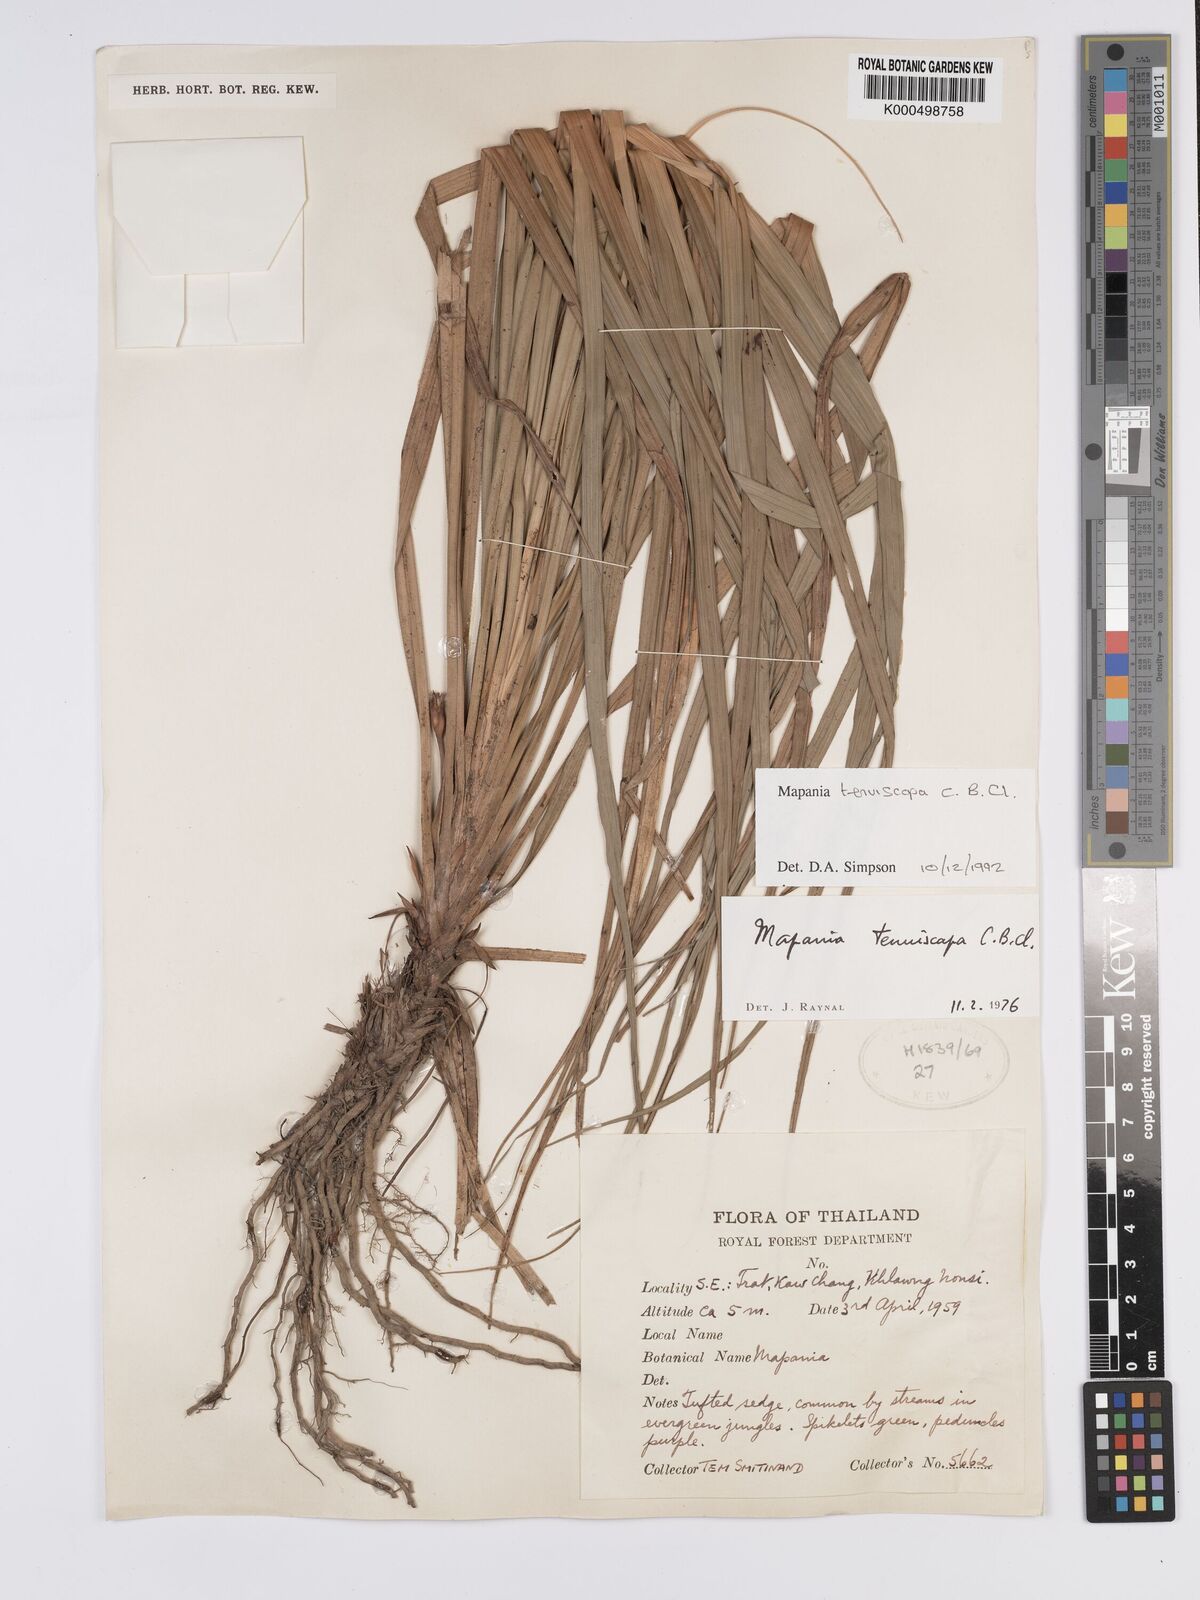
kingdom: Plantae
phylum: Tracheophyta
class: Liliopsida
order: Poales
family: Cyperaceae
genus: Mapania
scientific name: Mapania tenuiscapa
